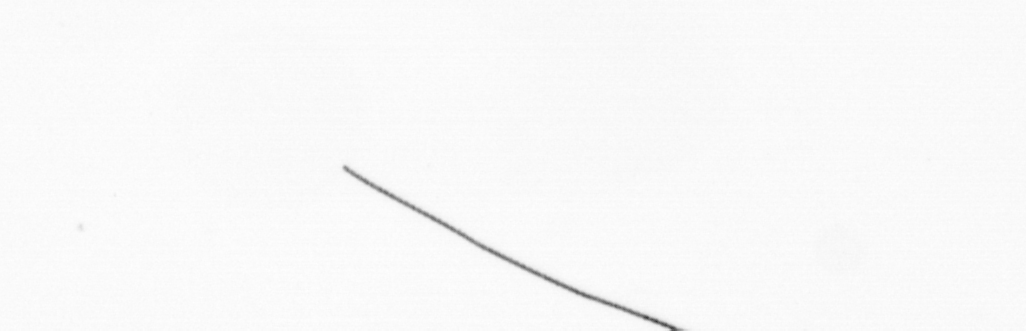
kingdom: Chromista
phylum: Ochrophyta
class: Bacillariophyceae
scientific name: Bacillariophyceae
